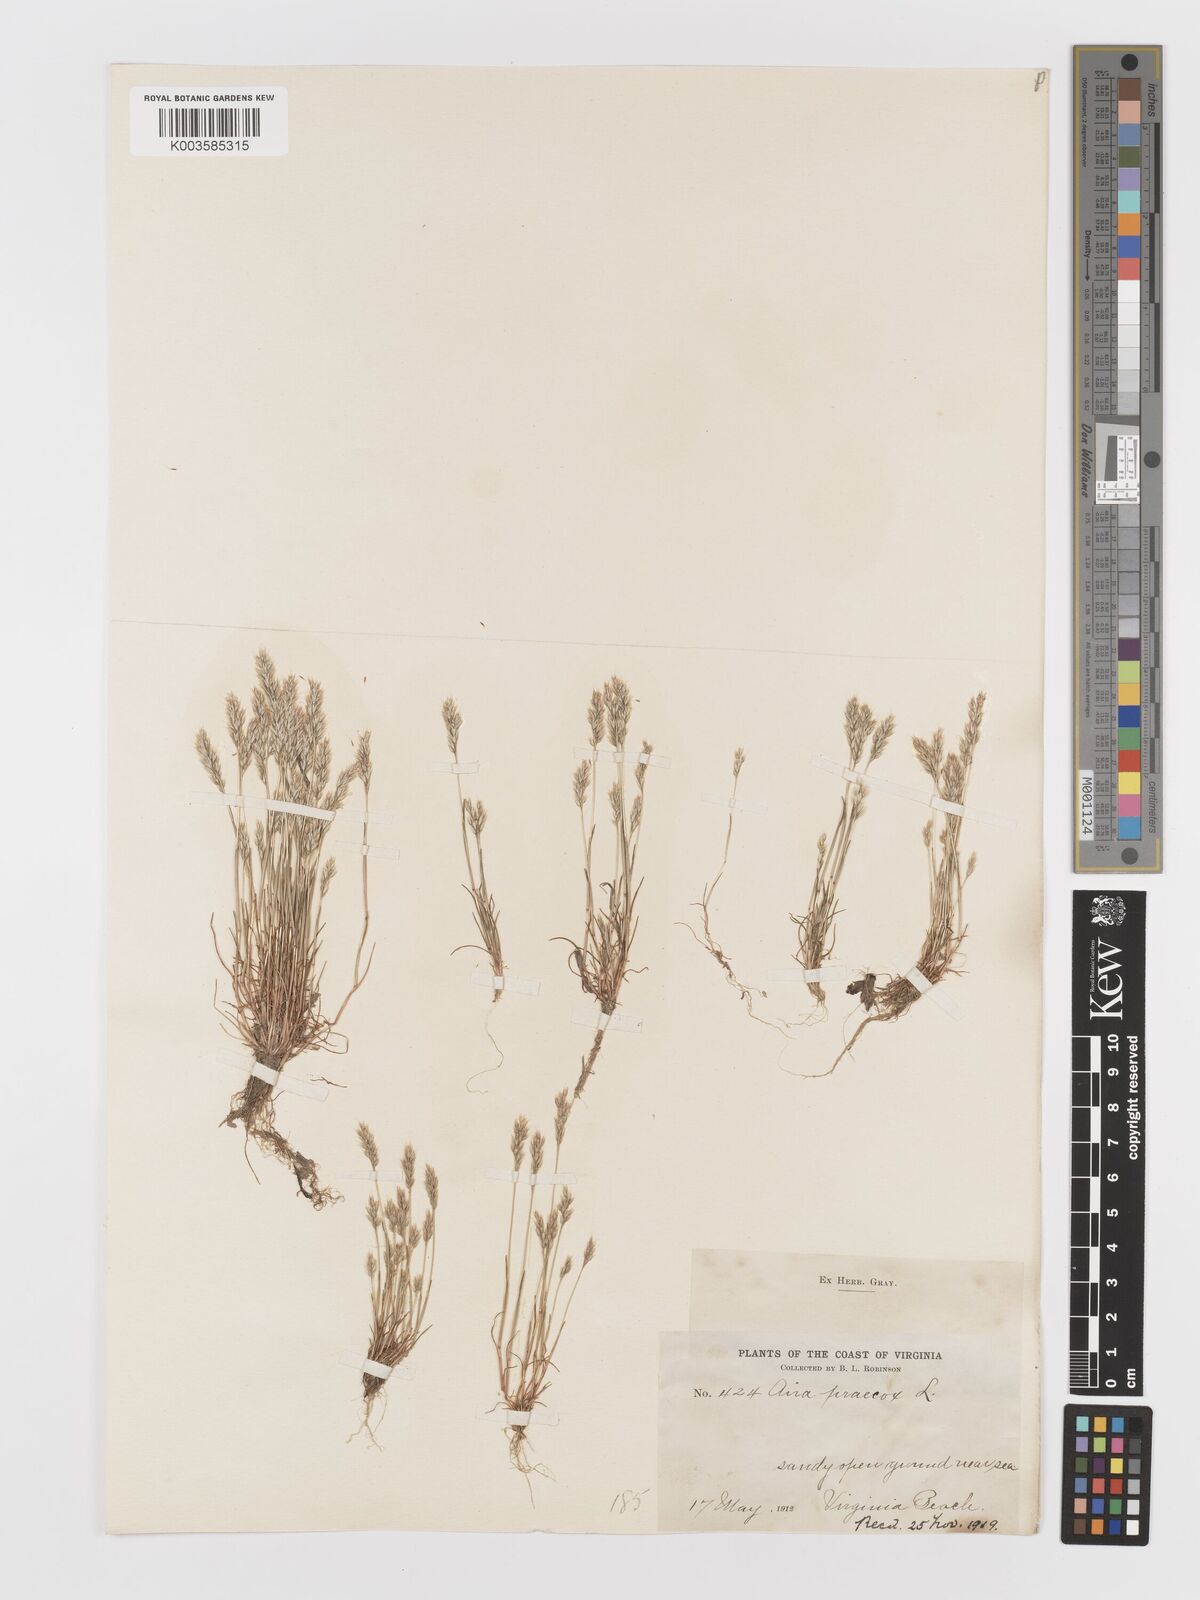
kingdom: Plantae
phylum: Tracheophyta
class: Liliopsida
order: Poales
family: Poaceae
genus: Aira
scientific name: Aira praecox
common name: Early hair-grass
